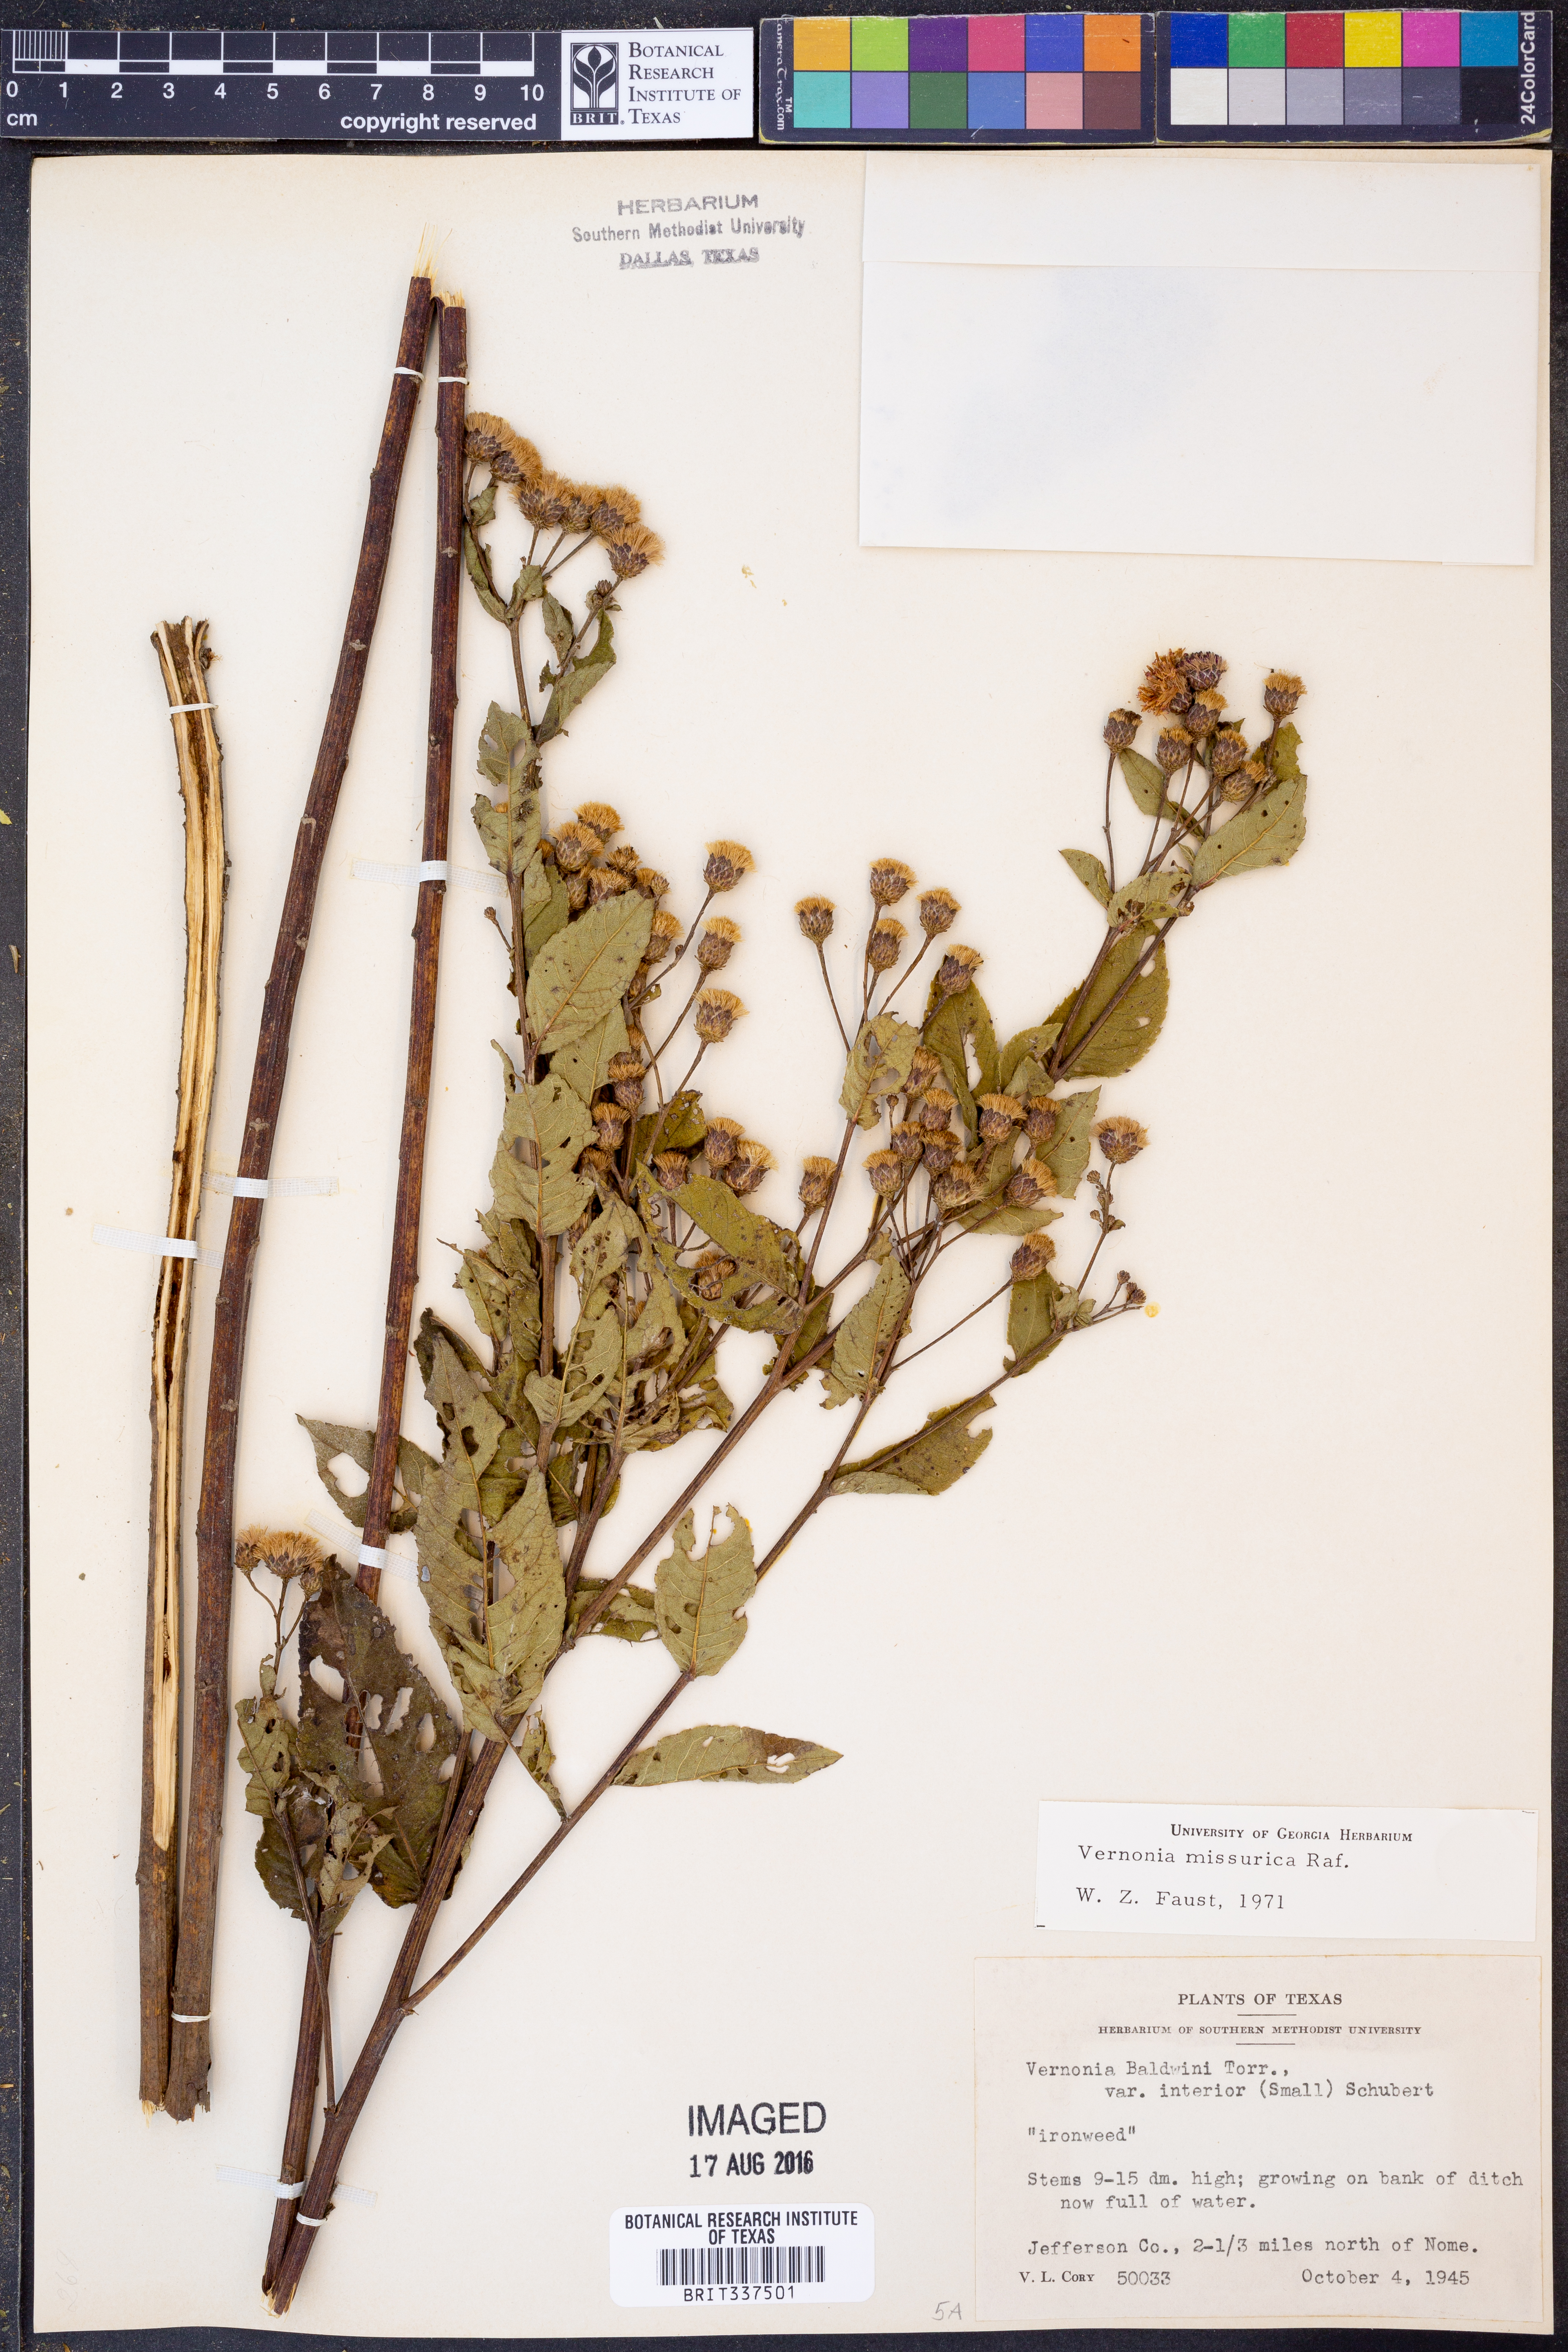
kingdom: Plantae
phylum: Tracheophyta
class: Magnoliopsida
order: Asterales
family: Asteraceae
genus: Vernonia
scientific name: Vernonia missurica
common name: Missouri ironweed
